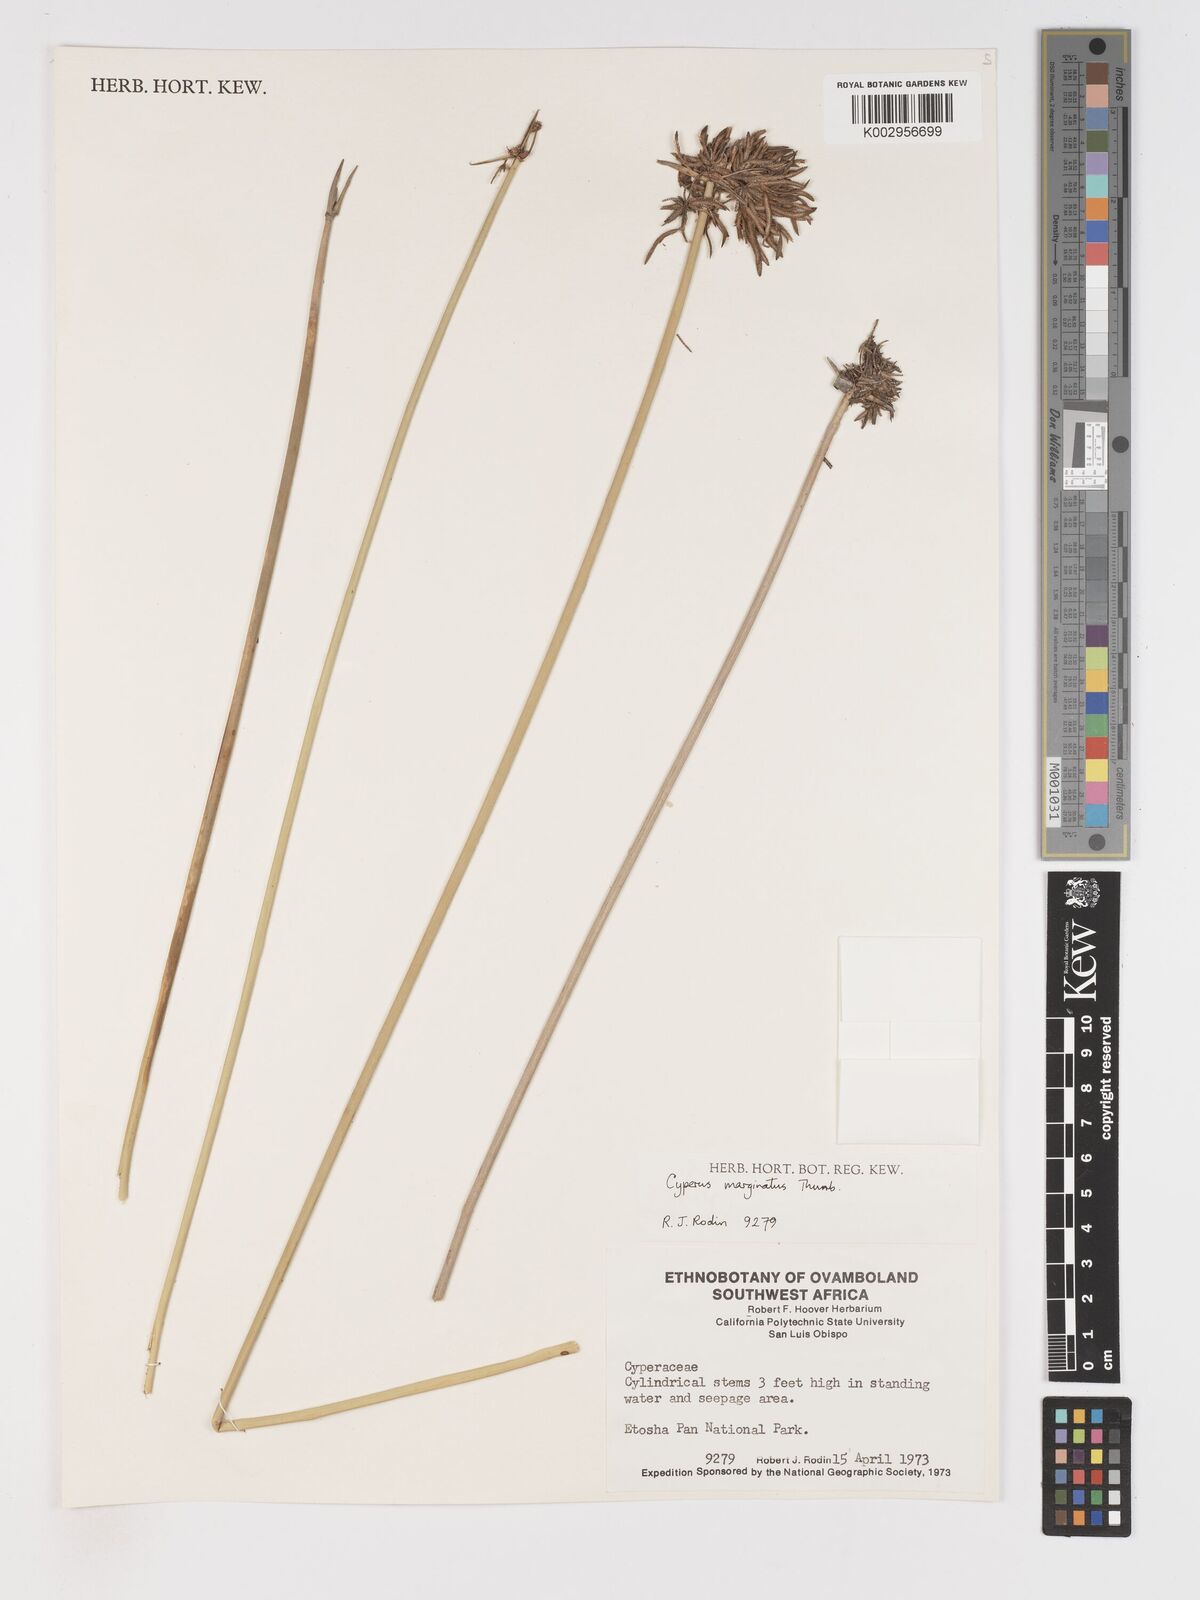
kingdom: Plantae
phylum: Tracheophyta
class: Liliopsida
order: Poales
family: Cyperaceae
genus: Cyperus
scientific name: Cyperus marginatus
